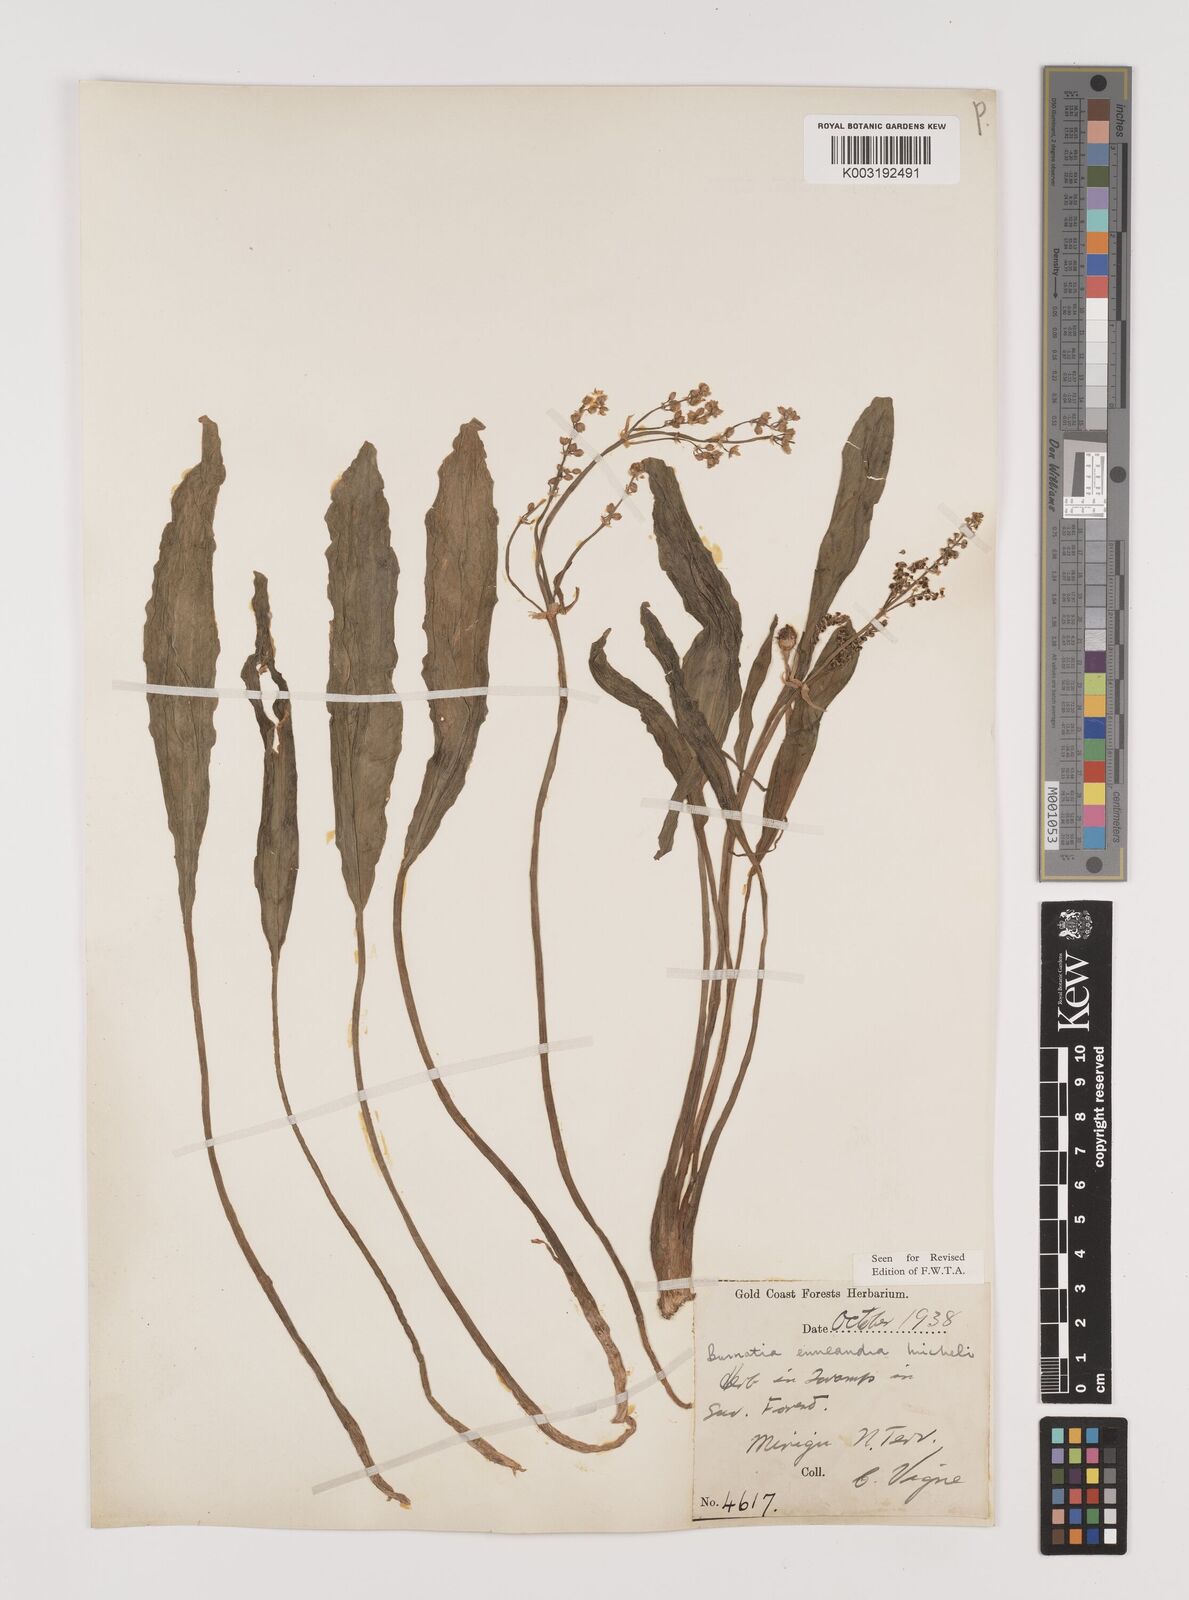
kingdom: Plantae
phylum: Tracheophyta
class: Liliopsida
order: Alismatales
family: Alismataceae
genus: Burnatia
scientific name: Burnatia enneandra
